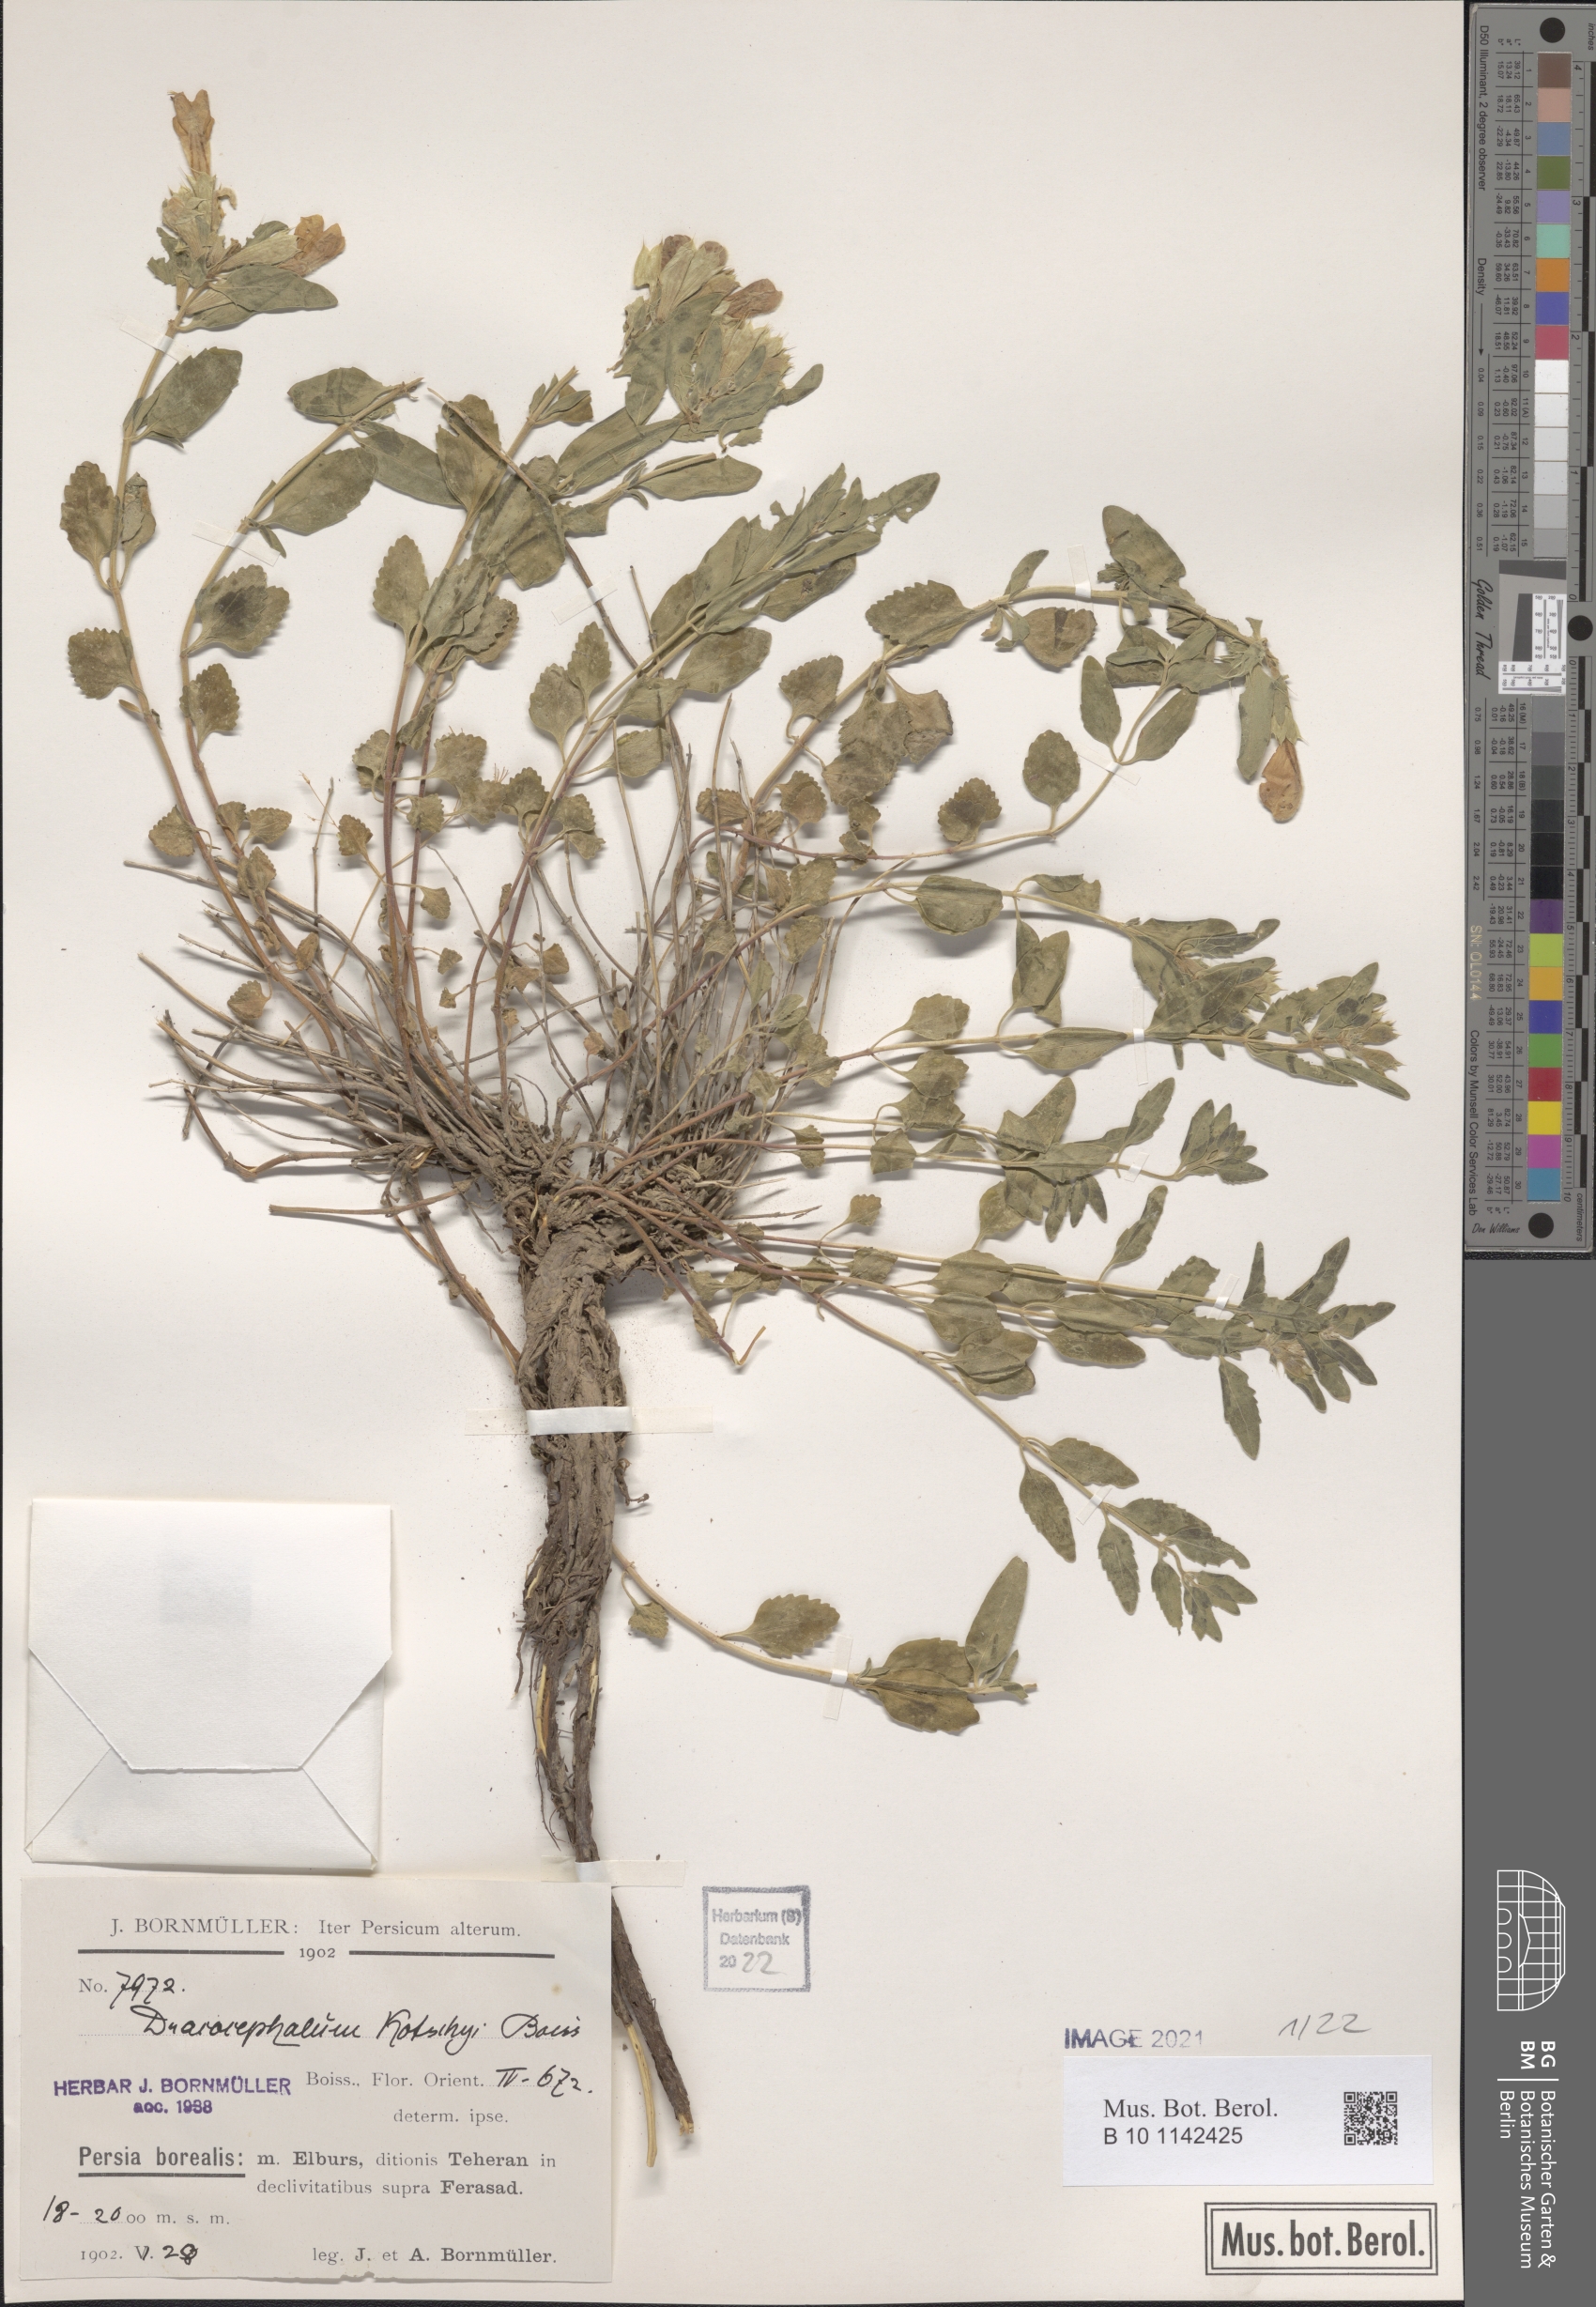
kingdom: Plantae
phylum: Tracheophyta
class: Magnoliopsida
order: Lamiales
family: Lamiaceae
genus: Dracocephalum
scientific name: Dracocephalum kotschyi
